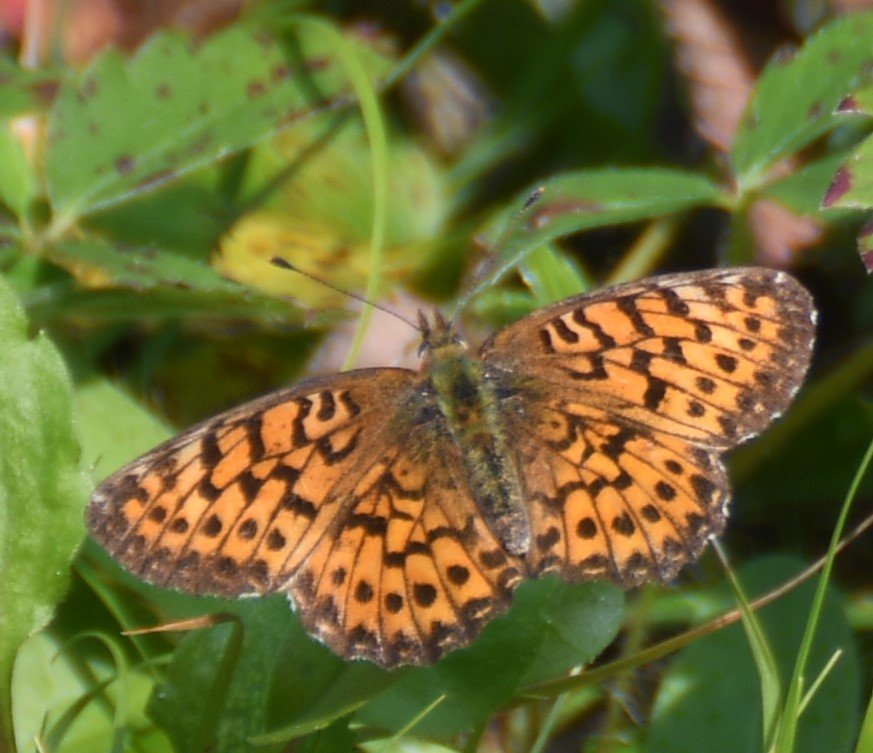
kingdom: Animalia
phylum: Arthropoda
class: Insecta
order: Lepidoptera
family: Nymphalidae
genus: Boloria
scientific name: Boloria chariclea
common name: Arctic Fritillary
